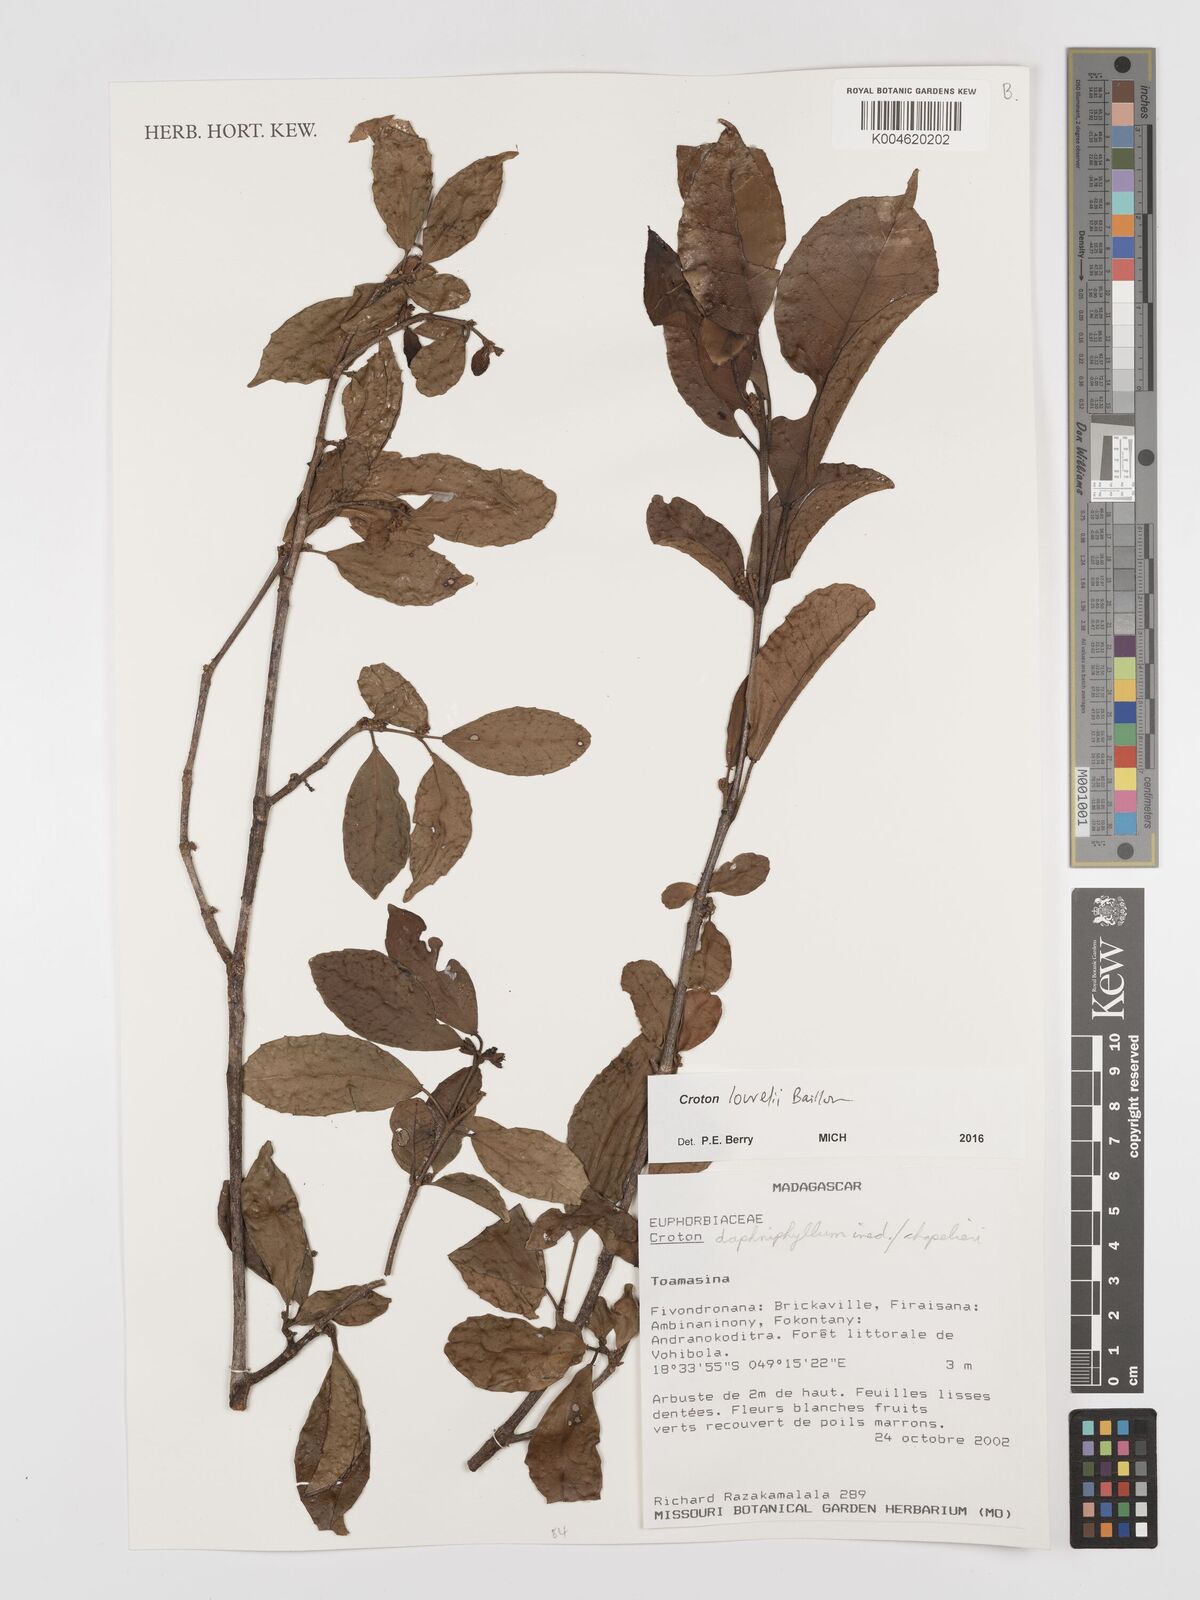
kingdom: Plantae
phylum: Tracheophyta
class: Magnoliopsida
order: Malpighiales
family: Euphorbiaceae
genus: Croton
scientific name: Croton chapelieri
